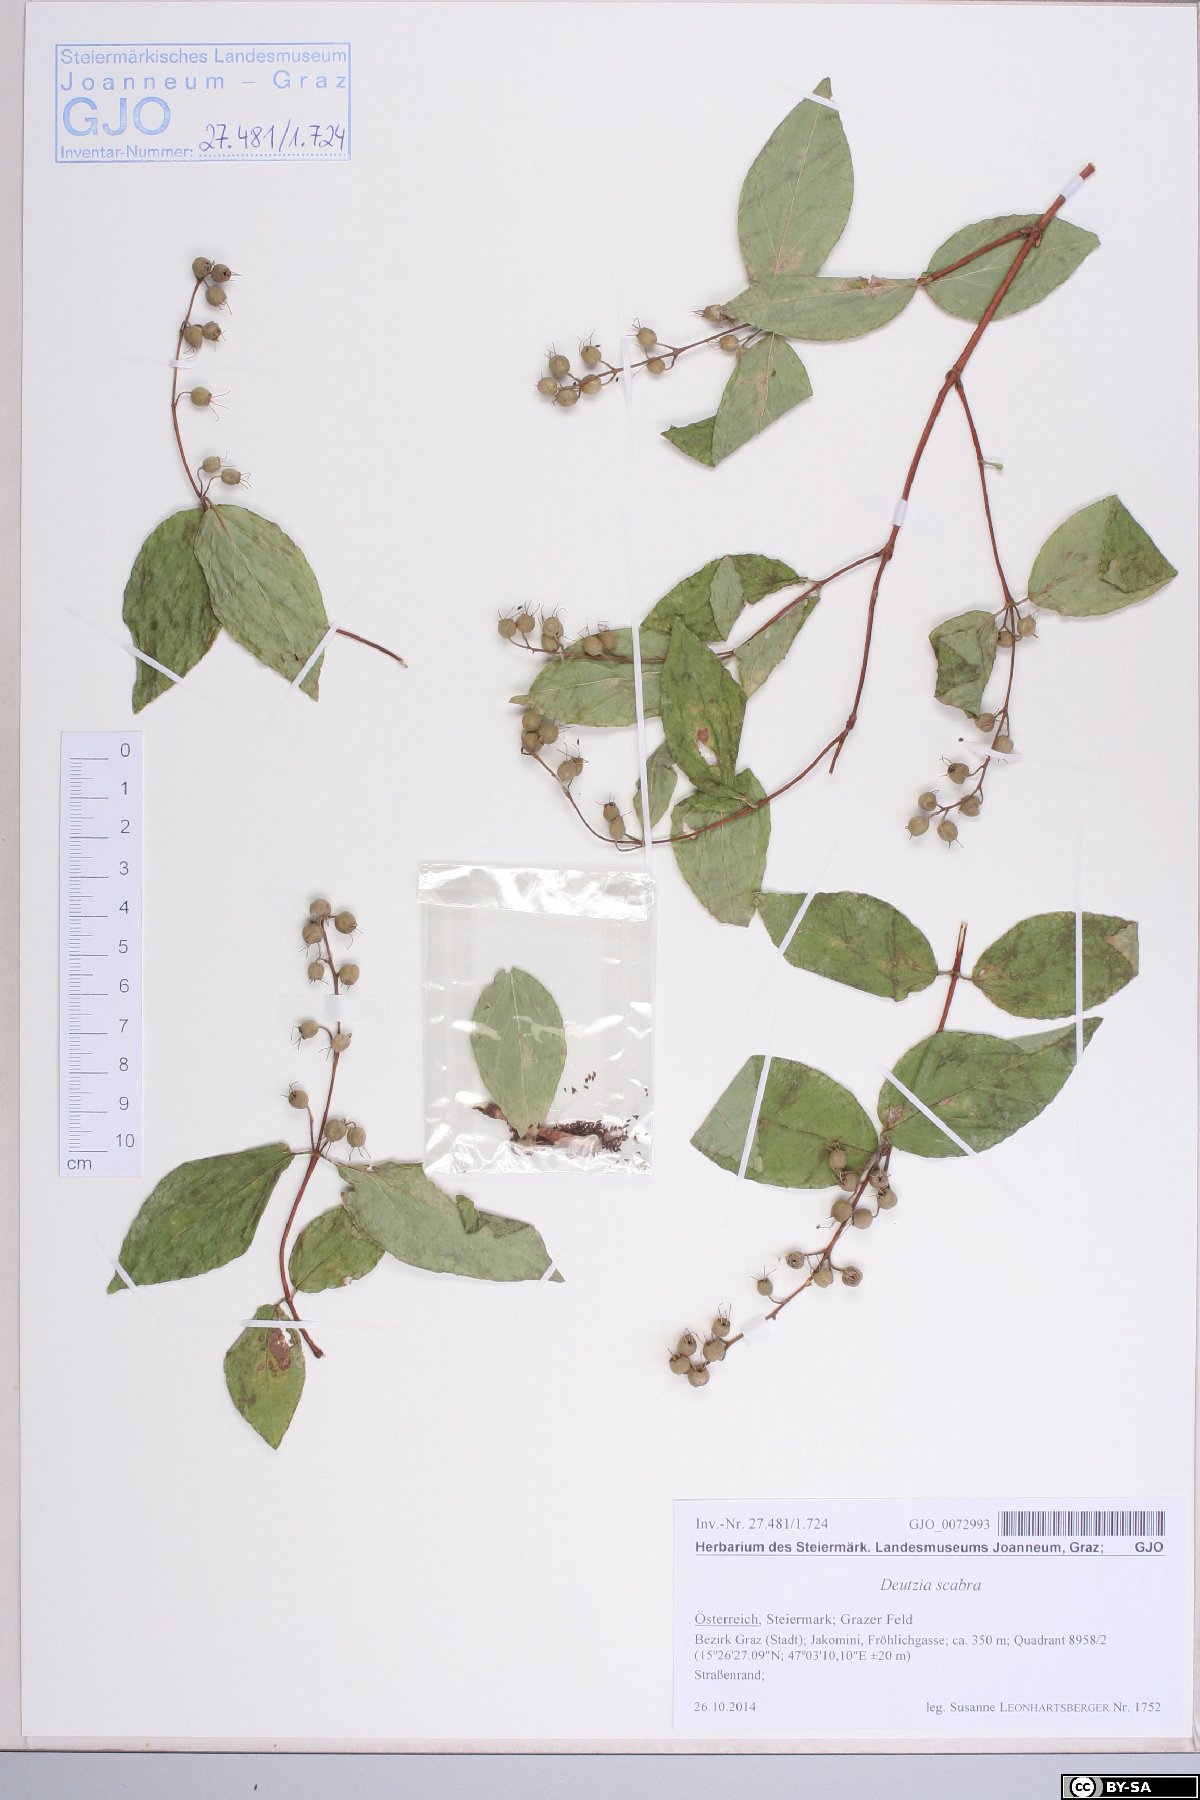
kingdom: Plantae
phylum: Tracheophyta
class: Magnoliopsida
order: Cornales
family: Hydrangeaceae
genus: Deutzia
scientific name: Deutzia scabra
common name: Deutzia
